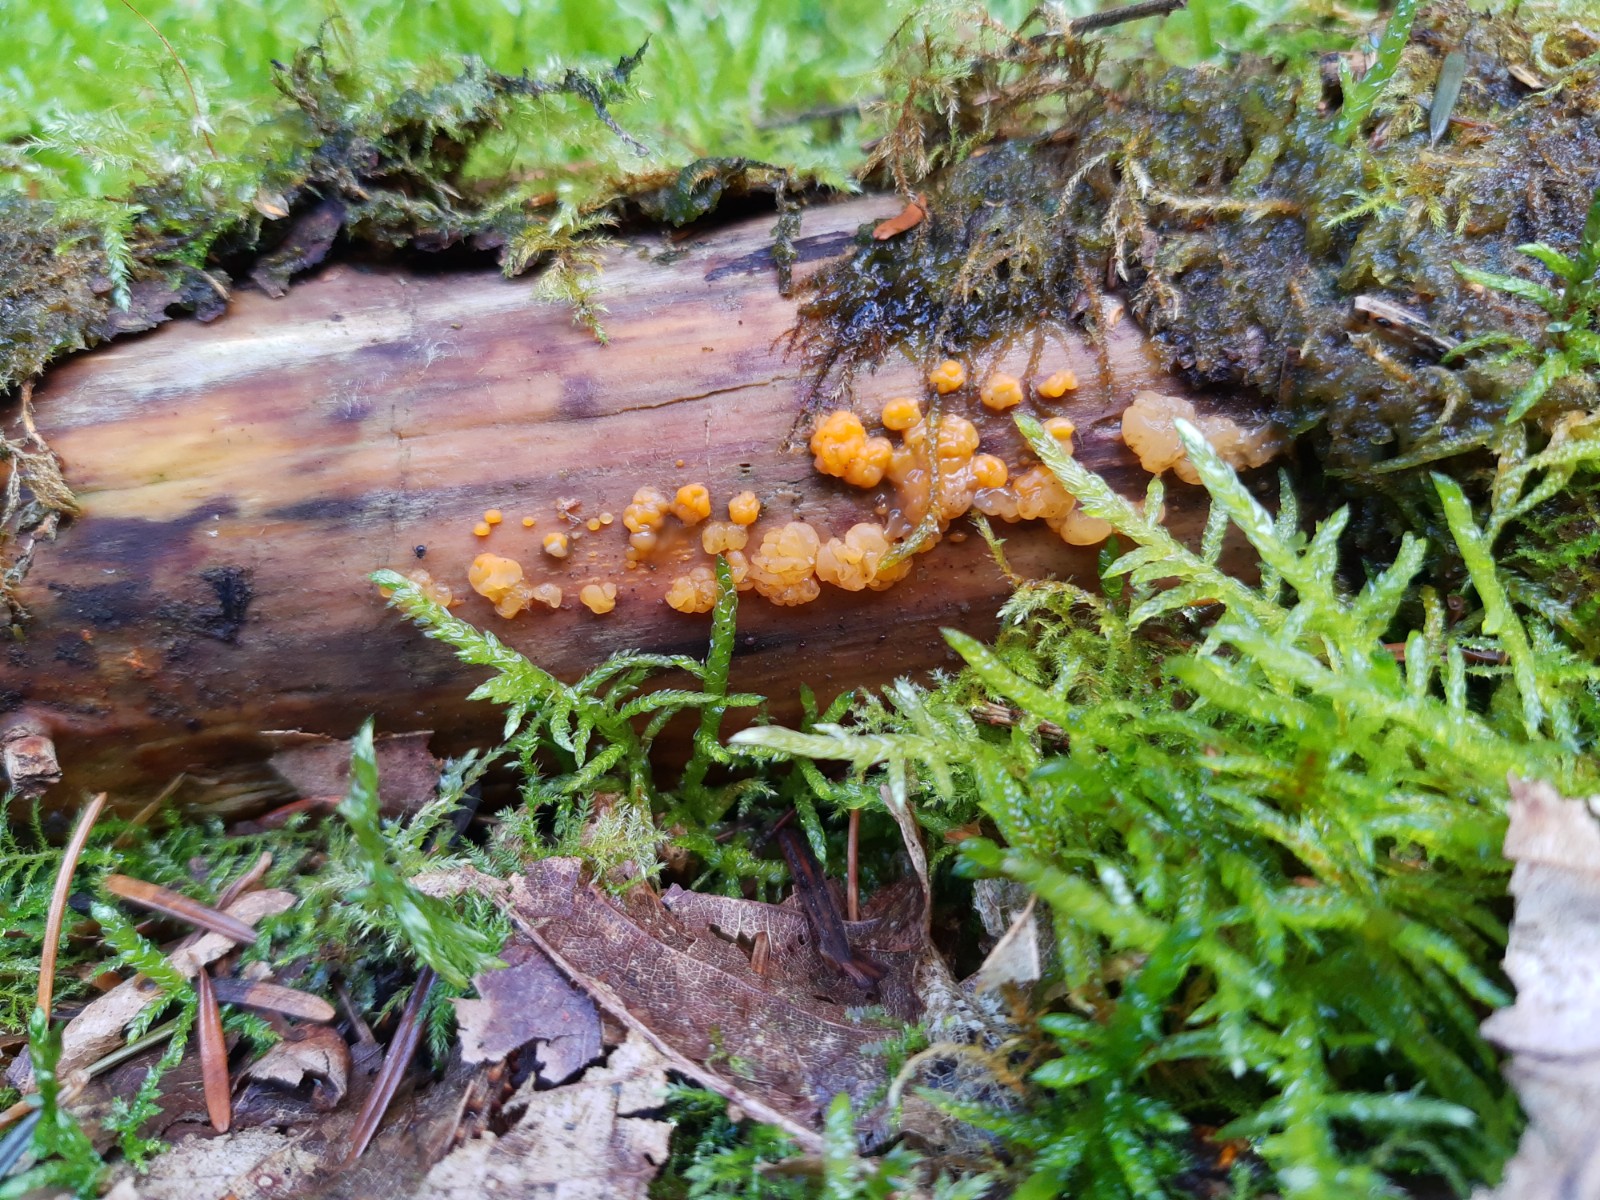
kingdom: Fungi
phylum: Basidiomycota
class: Dacrymycetes
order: Dacrymycetales
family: Dacrymycetaceae
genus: Dacrymyces
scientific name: Dacrymyces stillatus
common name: almindelig tåresvamp
